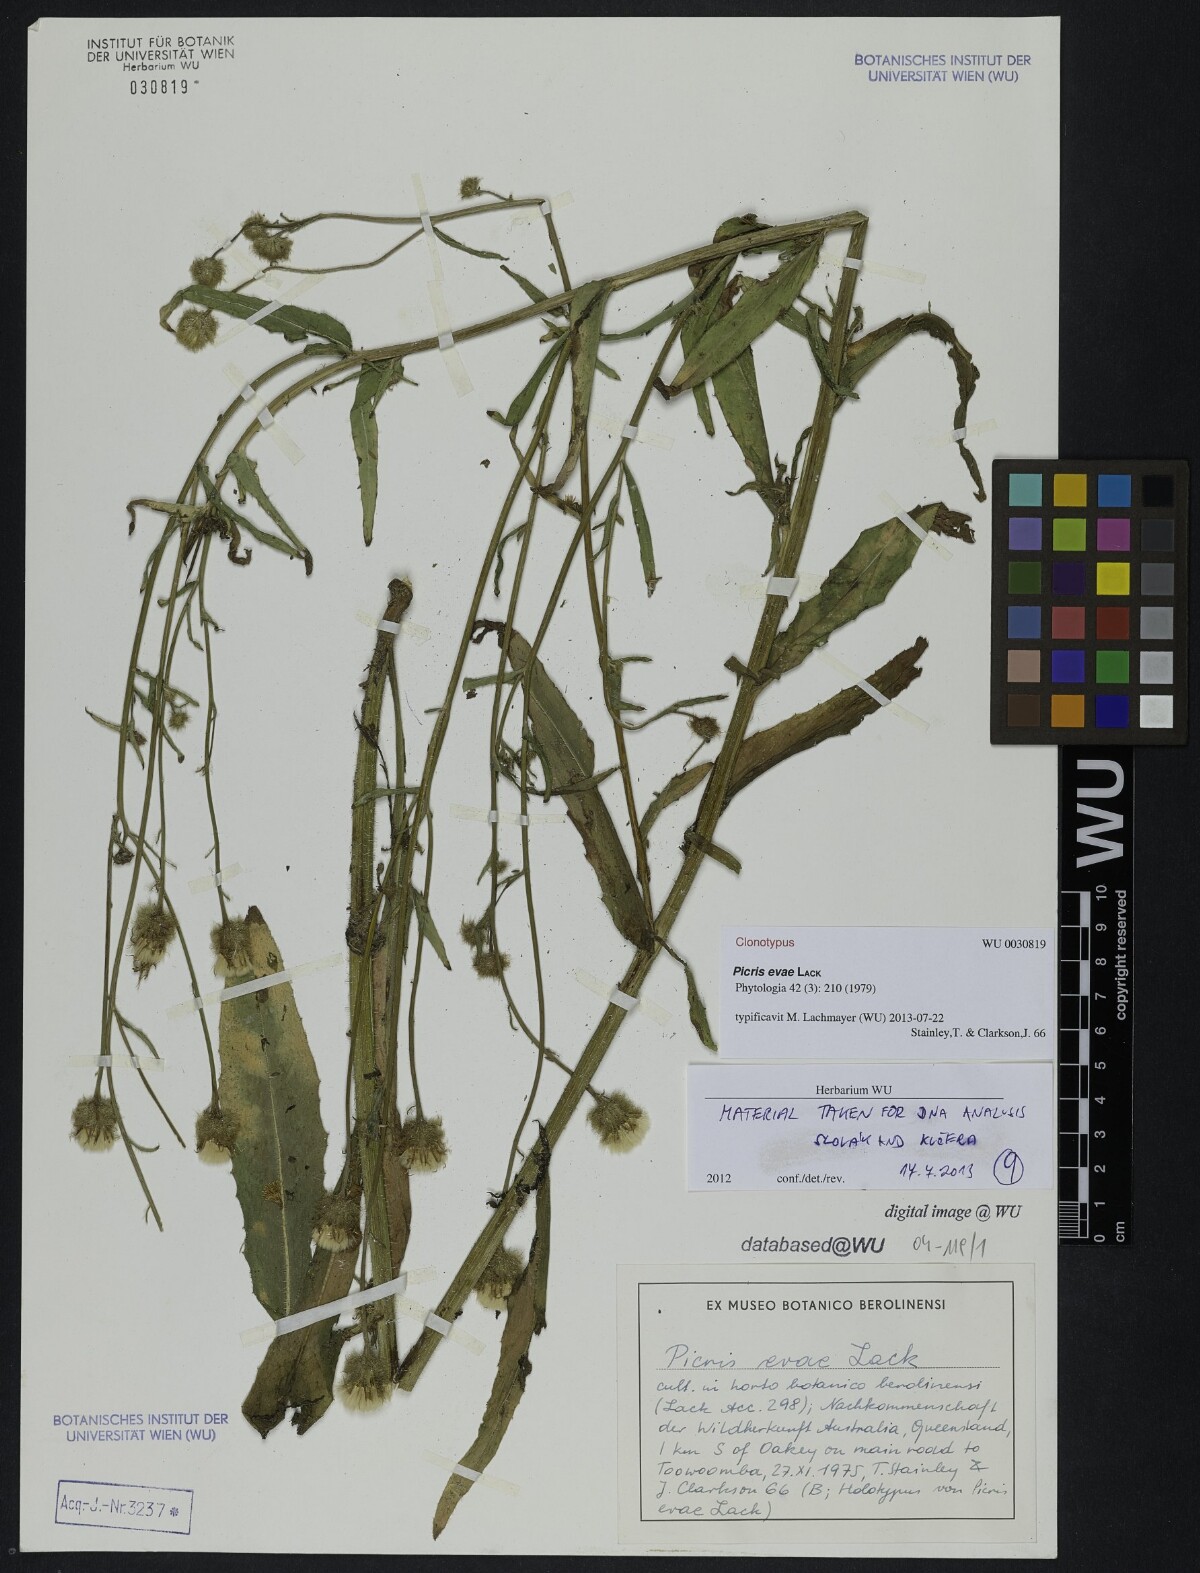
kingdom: Plantae
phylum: Tracheophyta
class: Magnoliopsida
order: Asterales
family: Asteraceae
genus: Picris
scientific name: Picris evae
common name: Hawkweed
